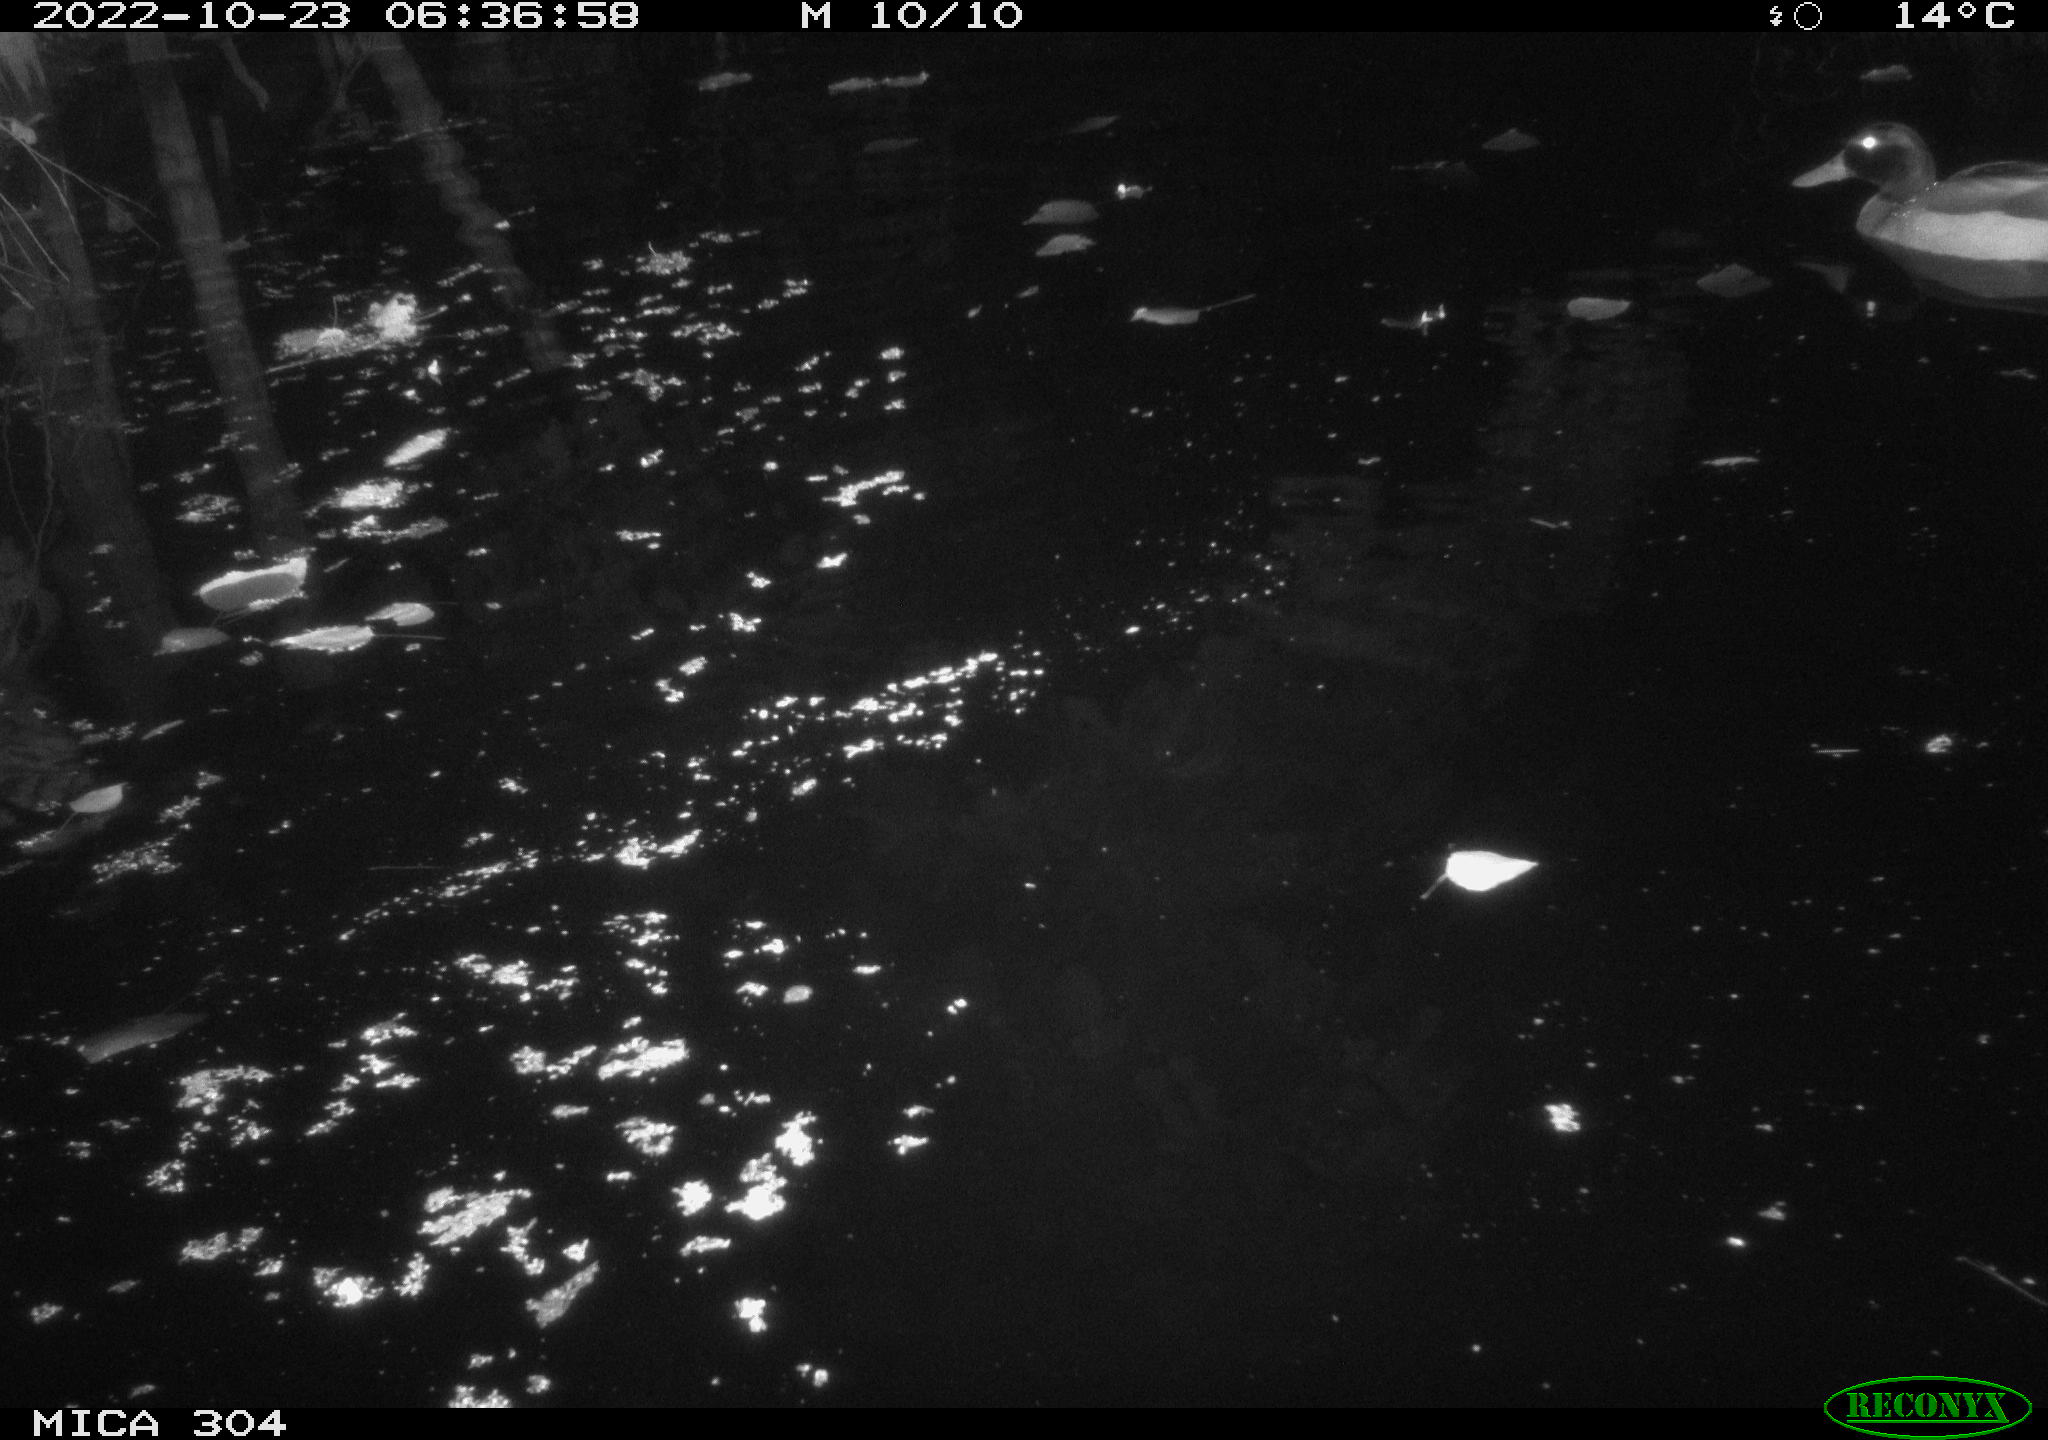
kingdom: Animalia
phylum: Chordata
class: Mammalia
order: Rodentia
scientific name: Rodentia
